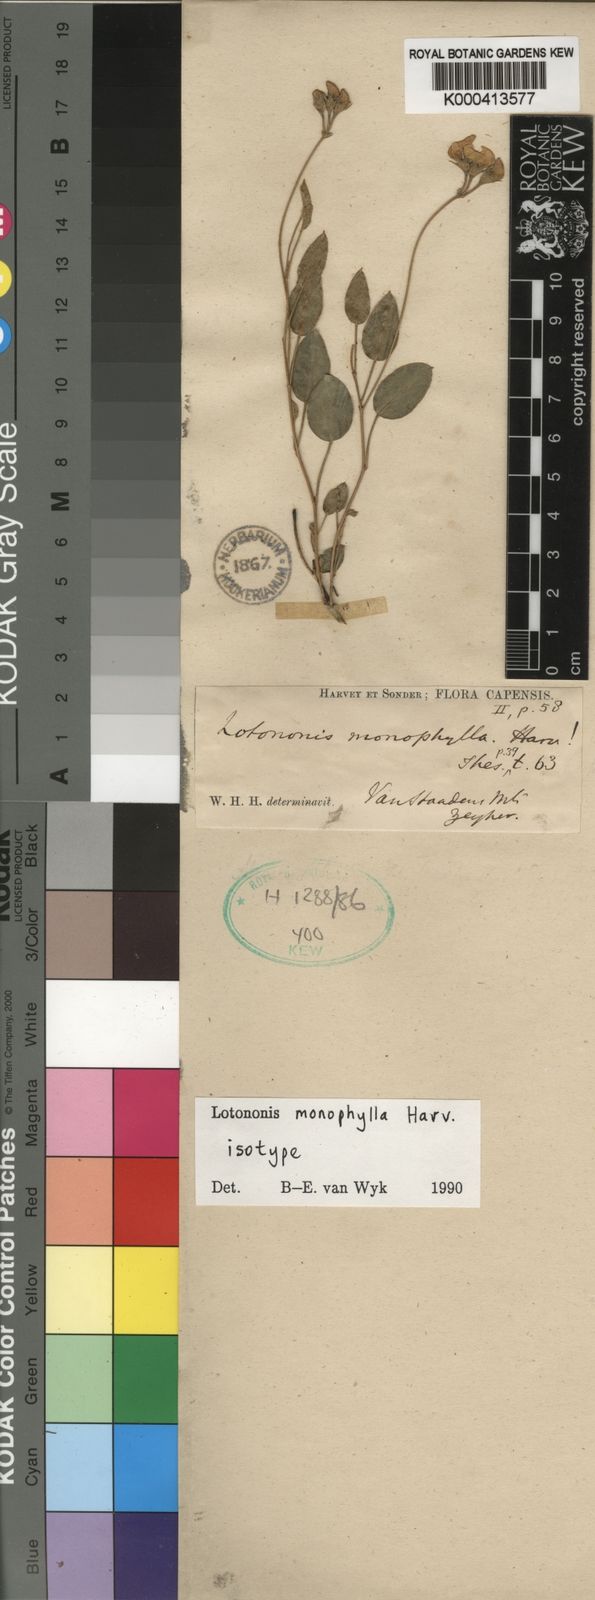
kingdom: Plantae
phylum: Tracheophyta
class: Magnoliopsida
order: Fabales
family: Fabaceae
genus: Lotononis
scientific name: Lotononis monophylla
